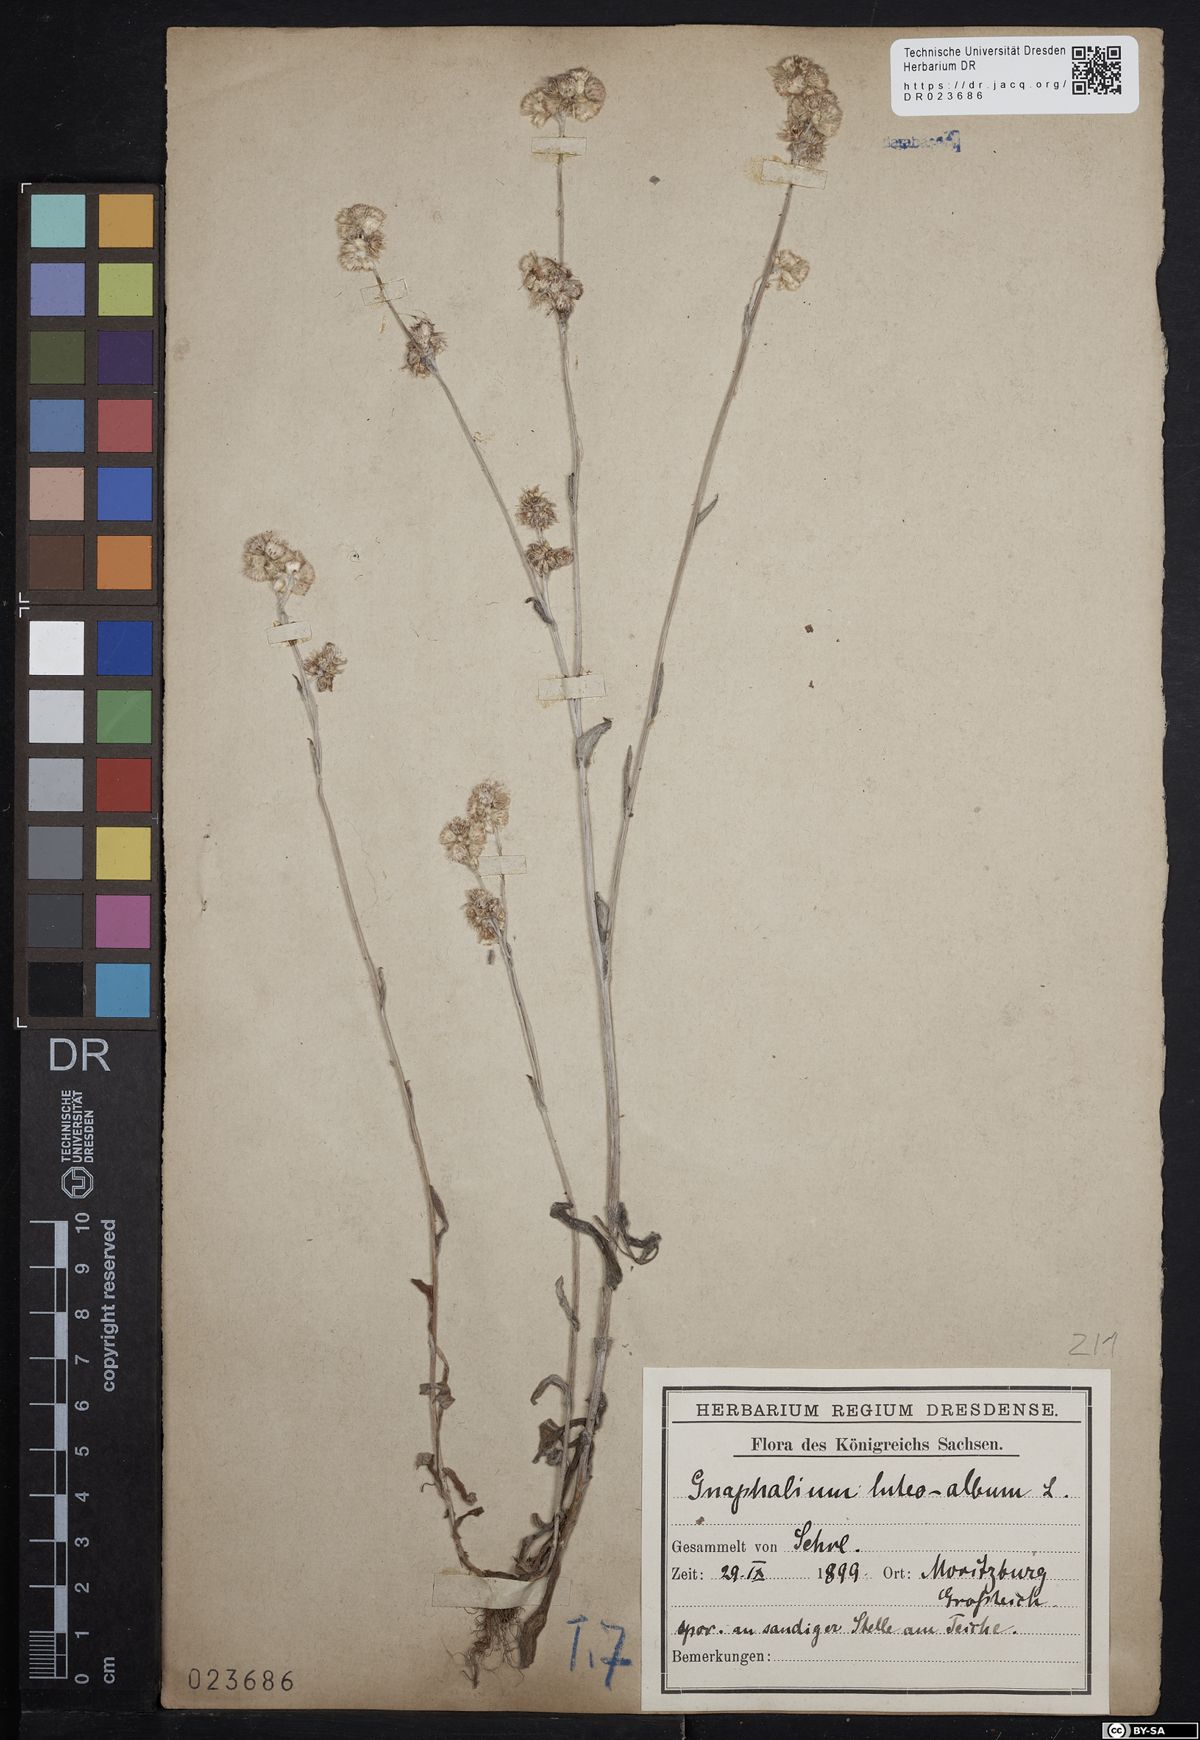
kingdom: Plantae
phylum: Tracheophyta
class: Magnoliopsida
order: Asterales
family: Asteraceae
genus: Helichrysum
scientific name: Helichrysum luteoalbum
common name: Daisy
